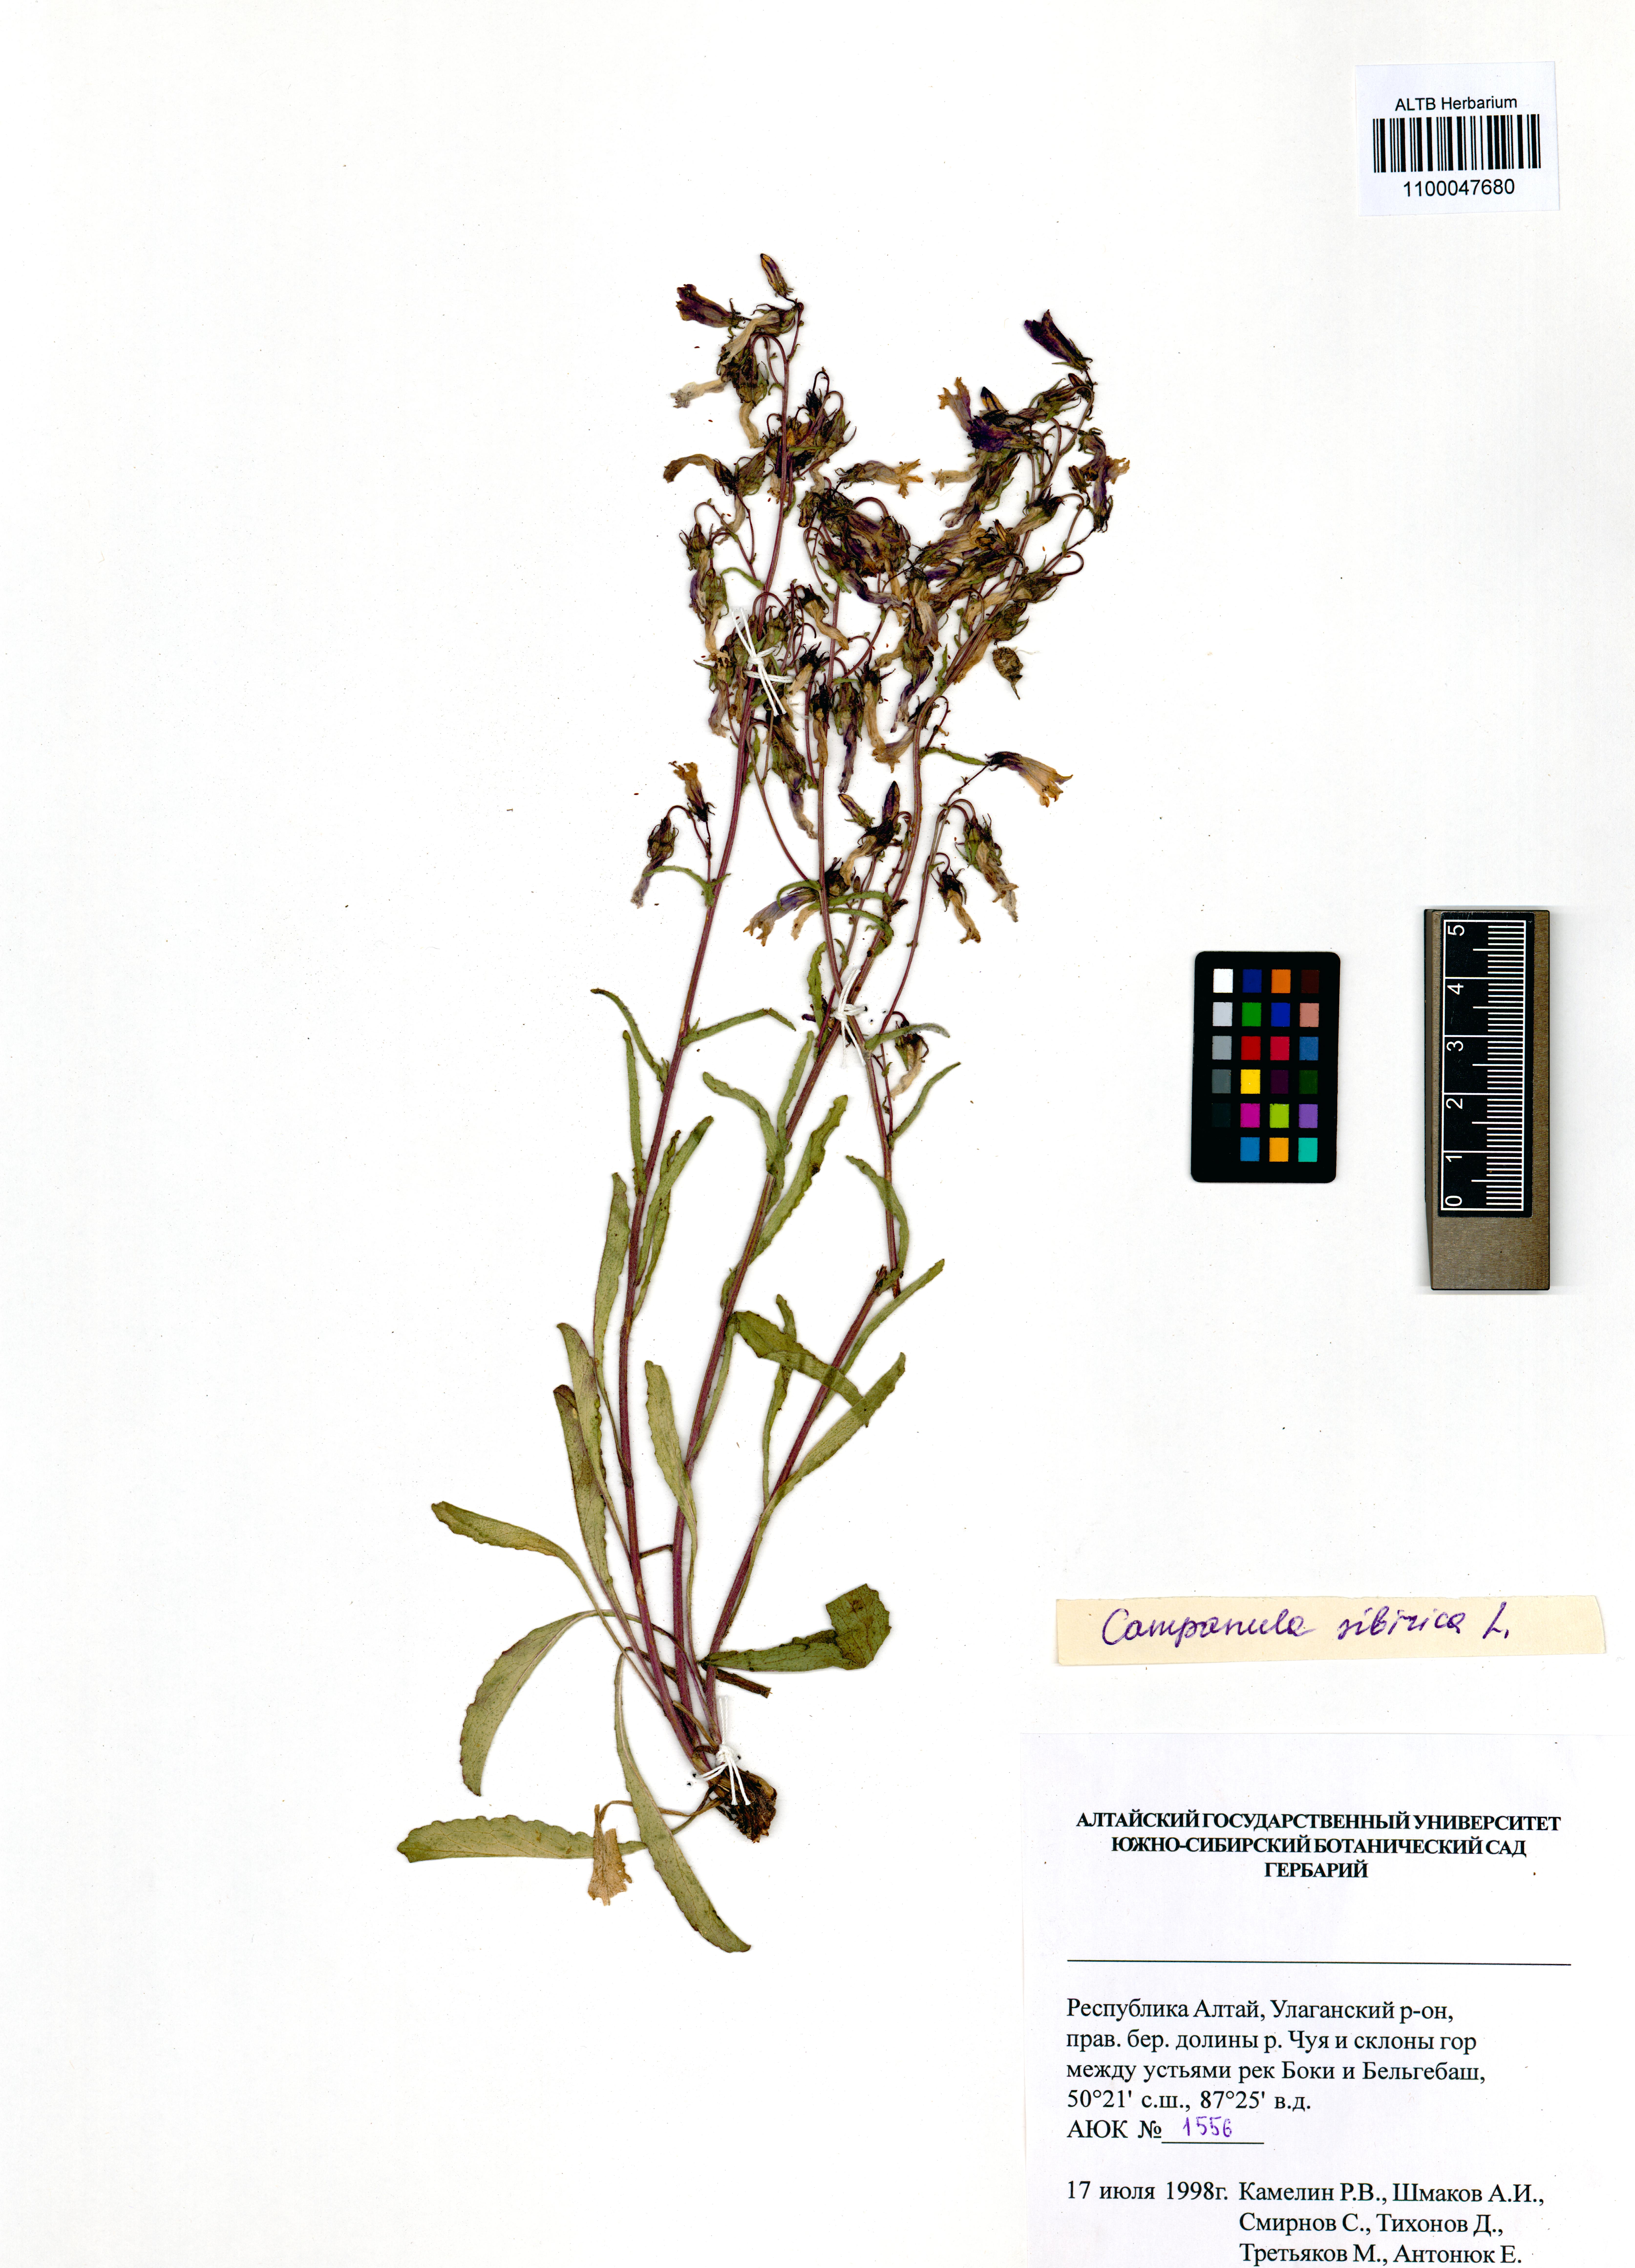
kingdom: Plantae
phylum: Tracheophyta
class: Magnoliopsida
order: Asterales
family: Campanulaceae
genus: Campanula
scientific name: Campanula sibirica
